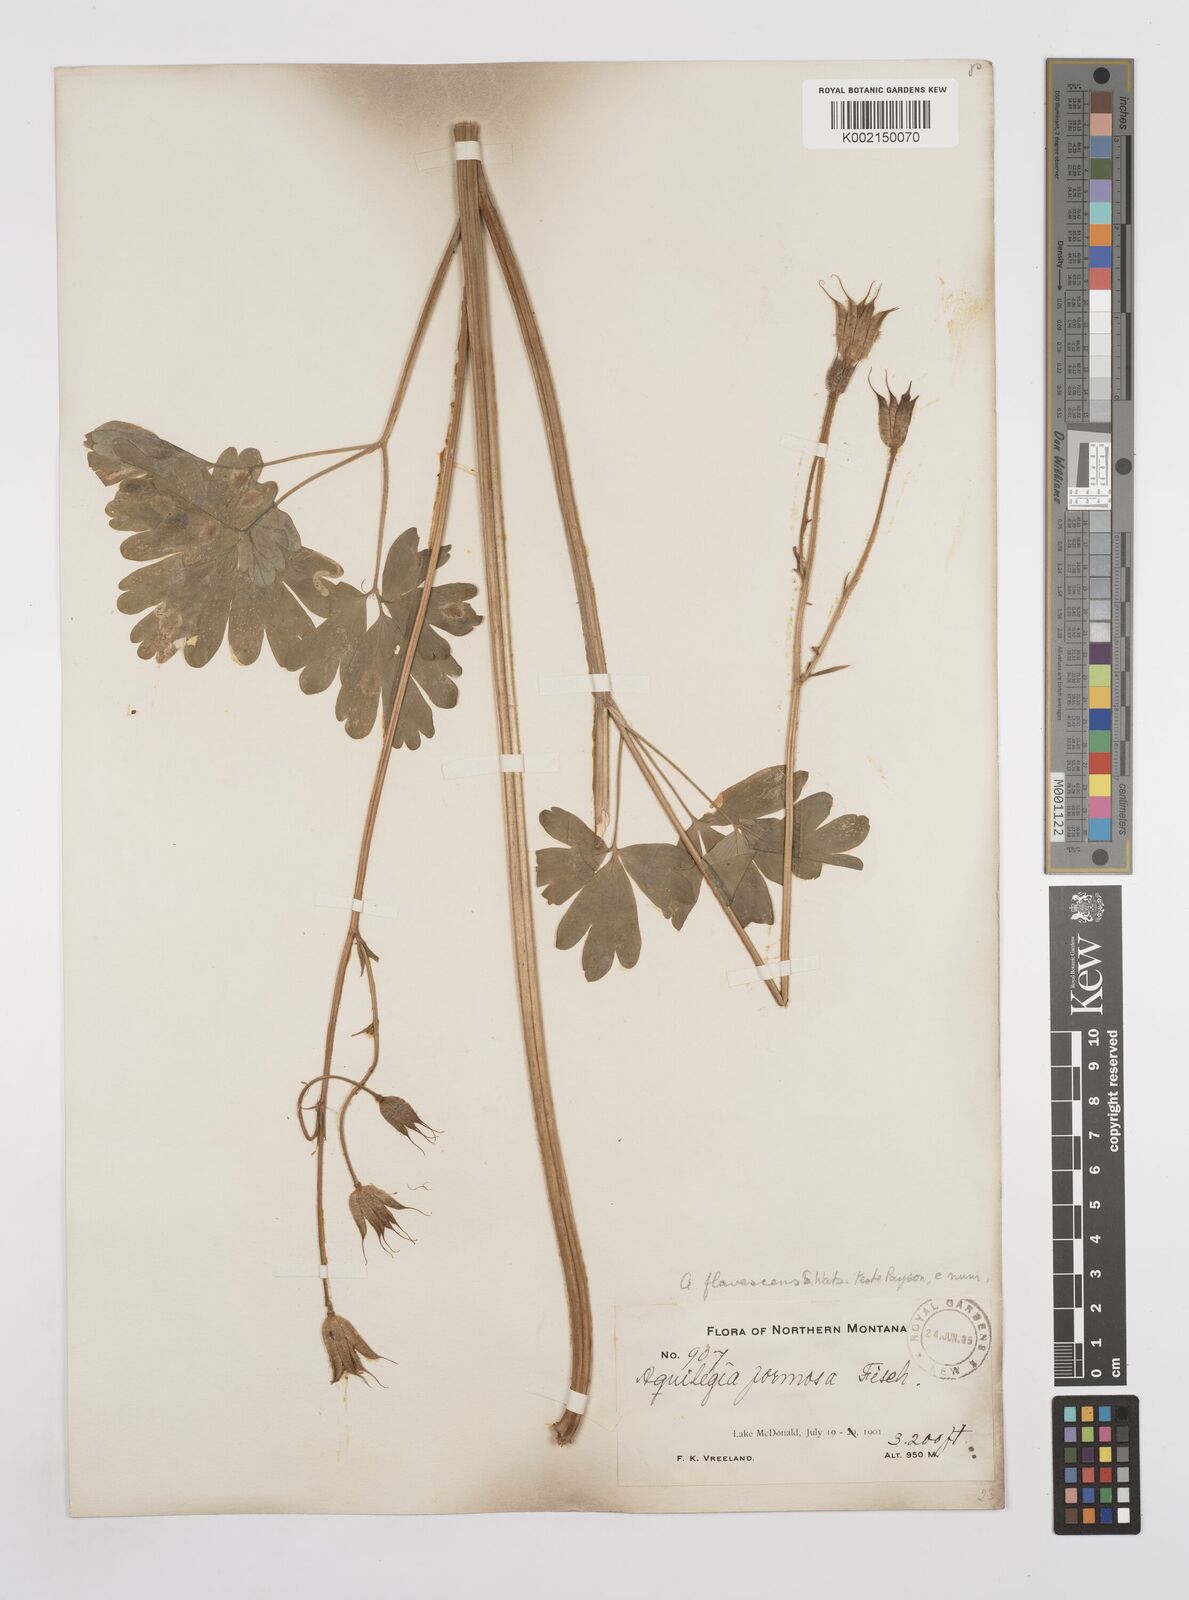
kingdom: Plantae
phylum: Tracheophyta
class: Magnoliopsida
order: Ranunculales
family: Ranunculaceae
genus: Aquilegia
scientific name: Aquilegia flavescens
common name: Yellow columbine
